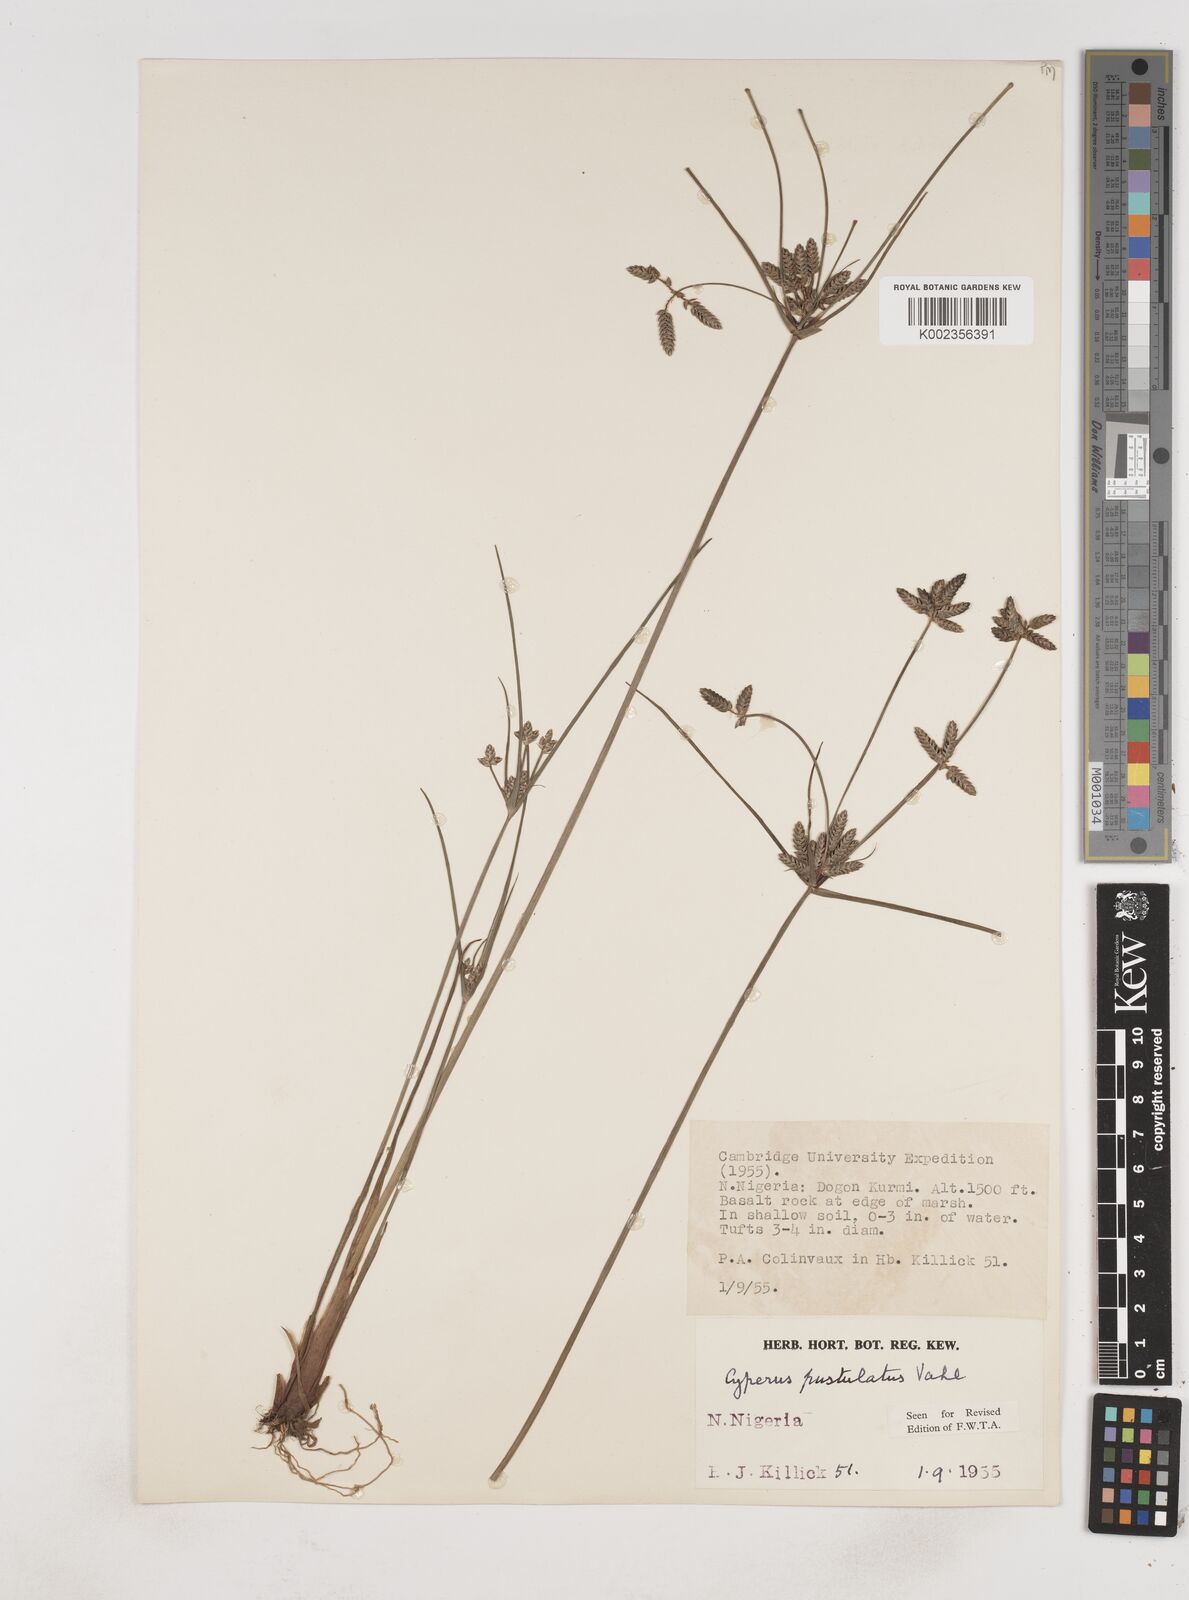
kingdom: Plantae
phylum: Tracheophyta
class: Liliopsida
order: Poales
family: Cyperaceae
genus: Cyperus
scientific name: Cyperus pustulatus
